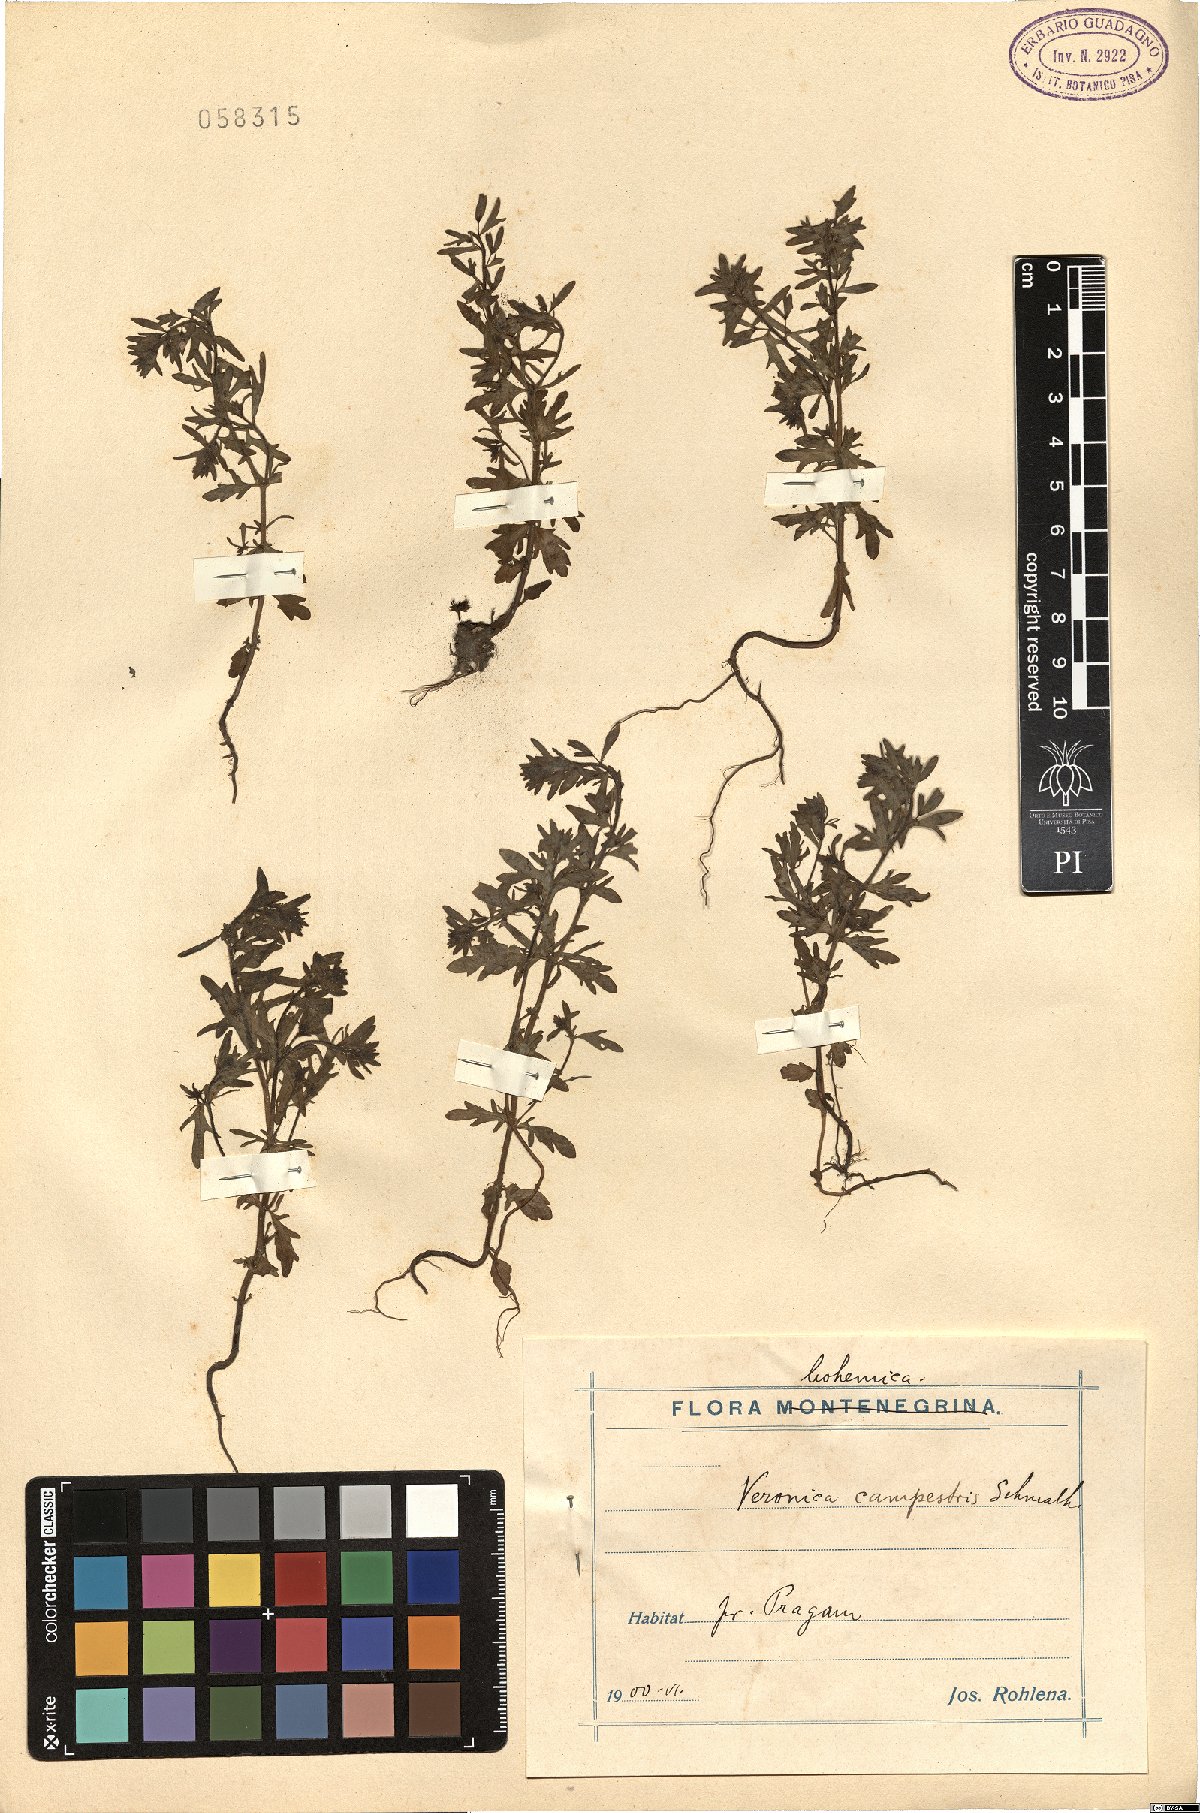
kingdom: Plantae
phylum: Tracheophyta
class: Magnoliopsida
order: Lamiales
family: Plantaginaceae
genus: Veronica
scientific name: Veronica
